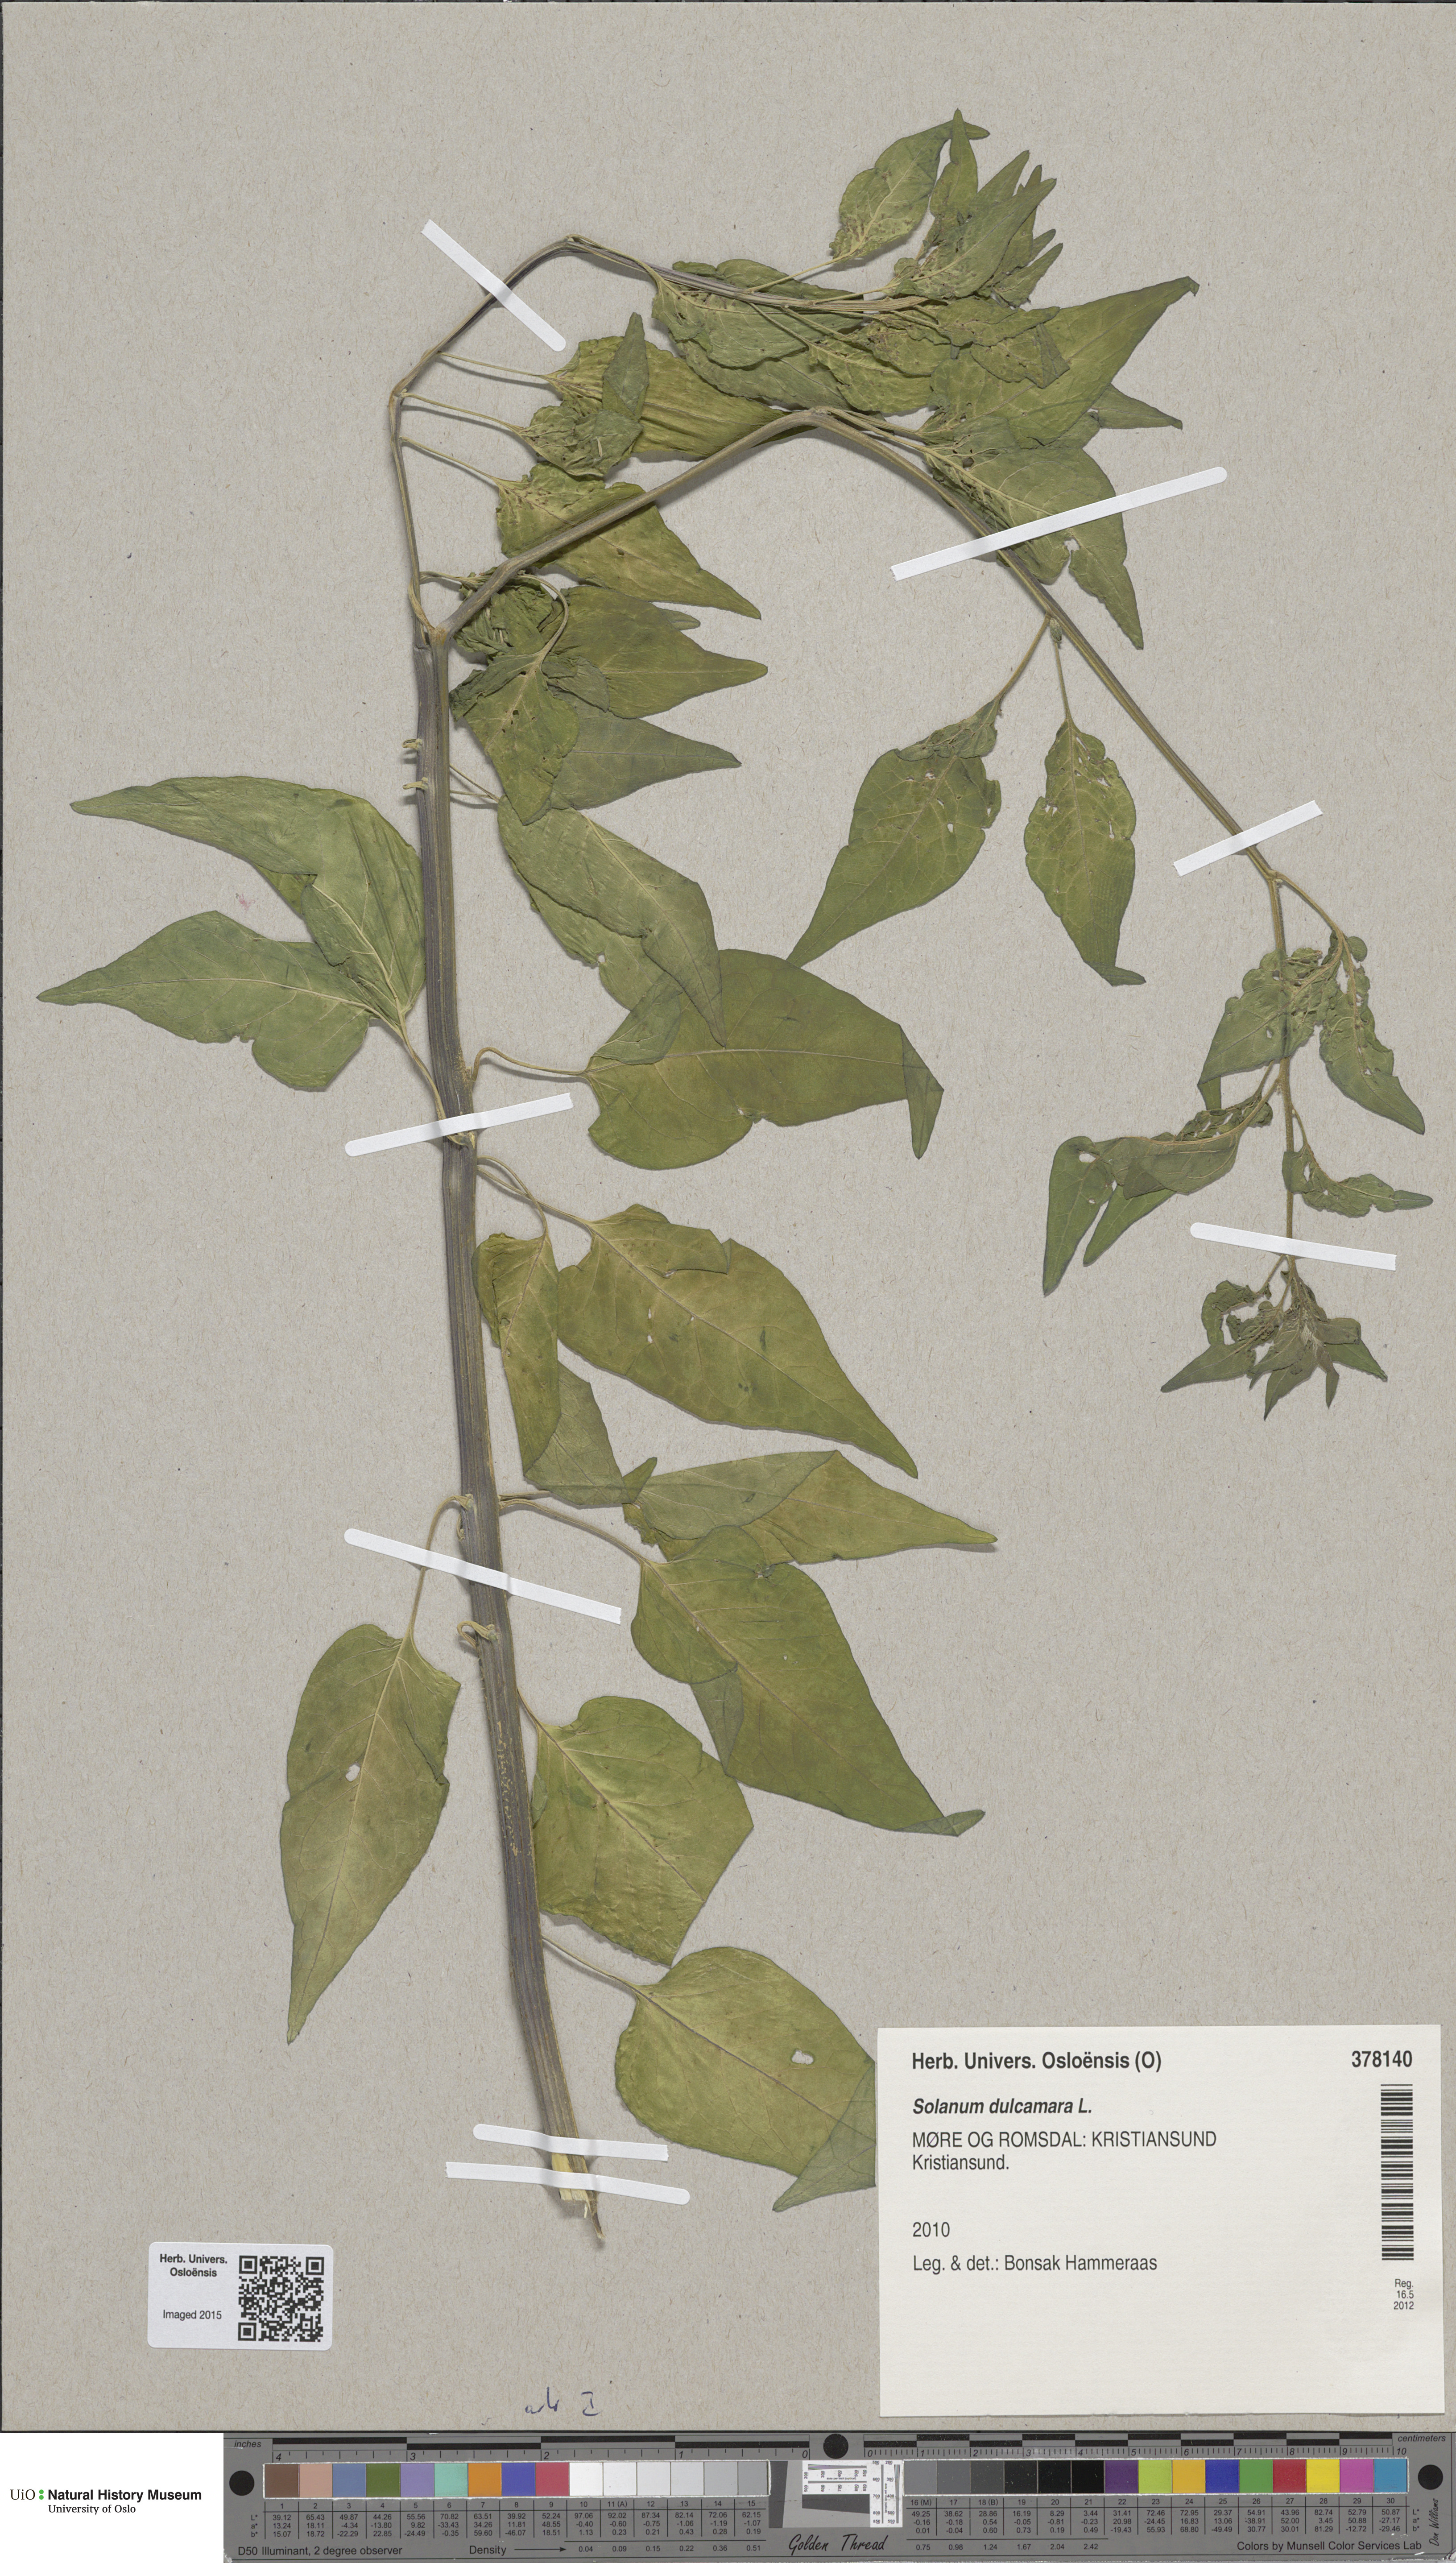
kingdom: Plantae
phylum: Tracheophyta
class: Magnoliopsida
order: Solanales
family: Solanaceae
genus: Solanum
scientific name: Solanum dulcamara
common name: Climbing nightshade
